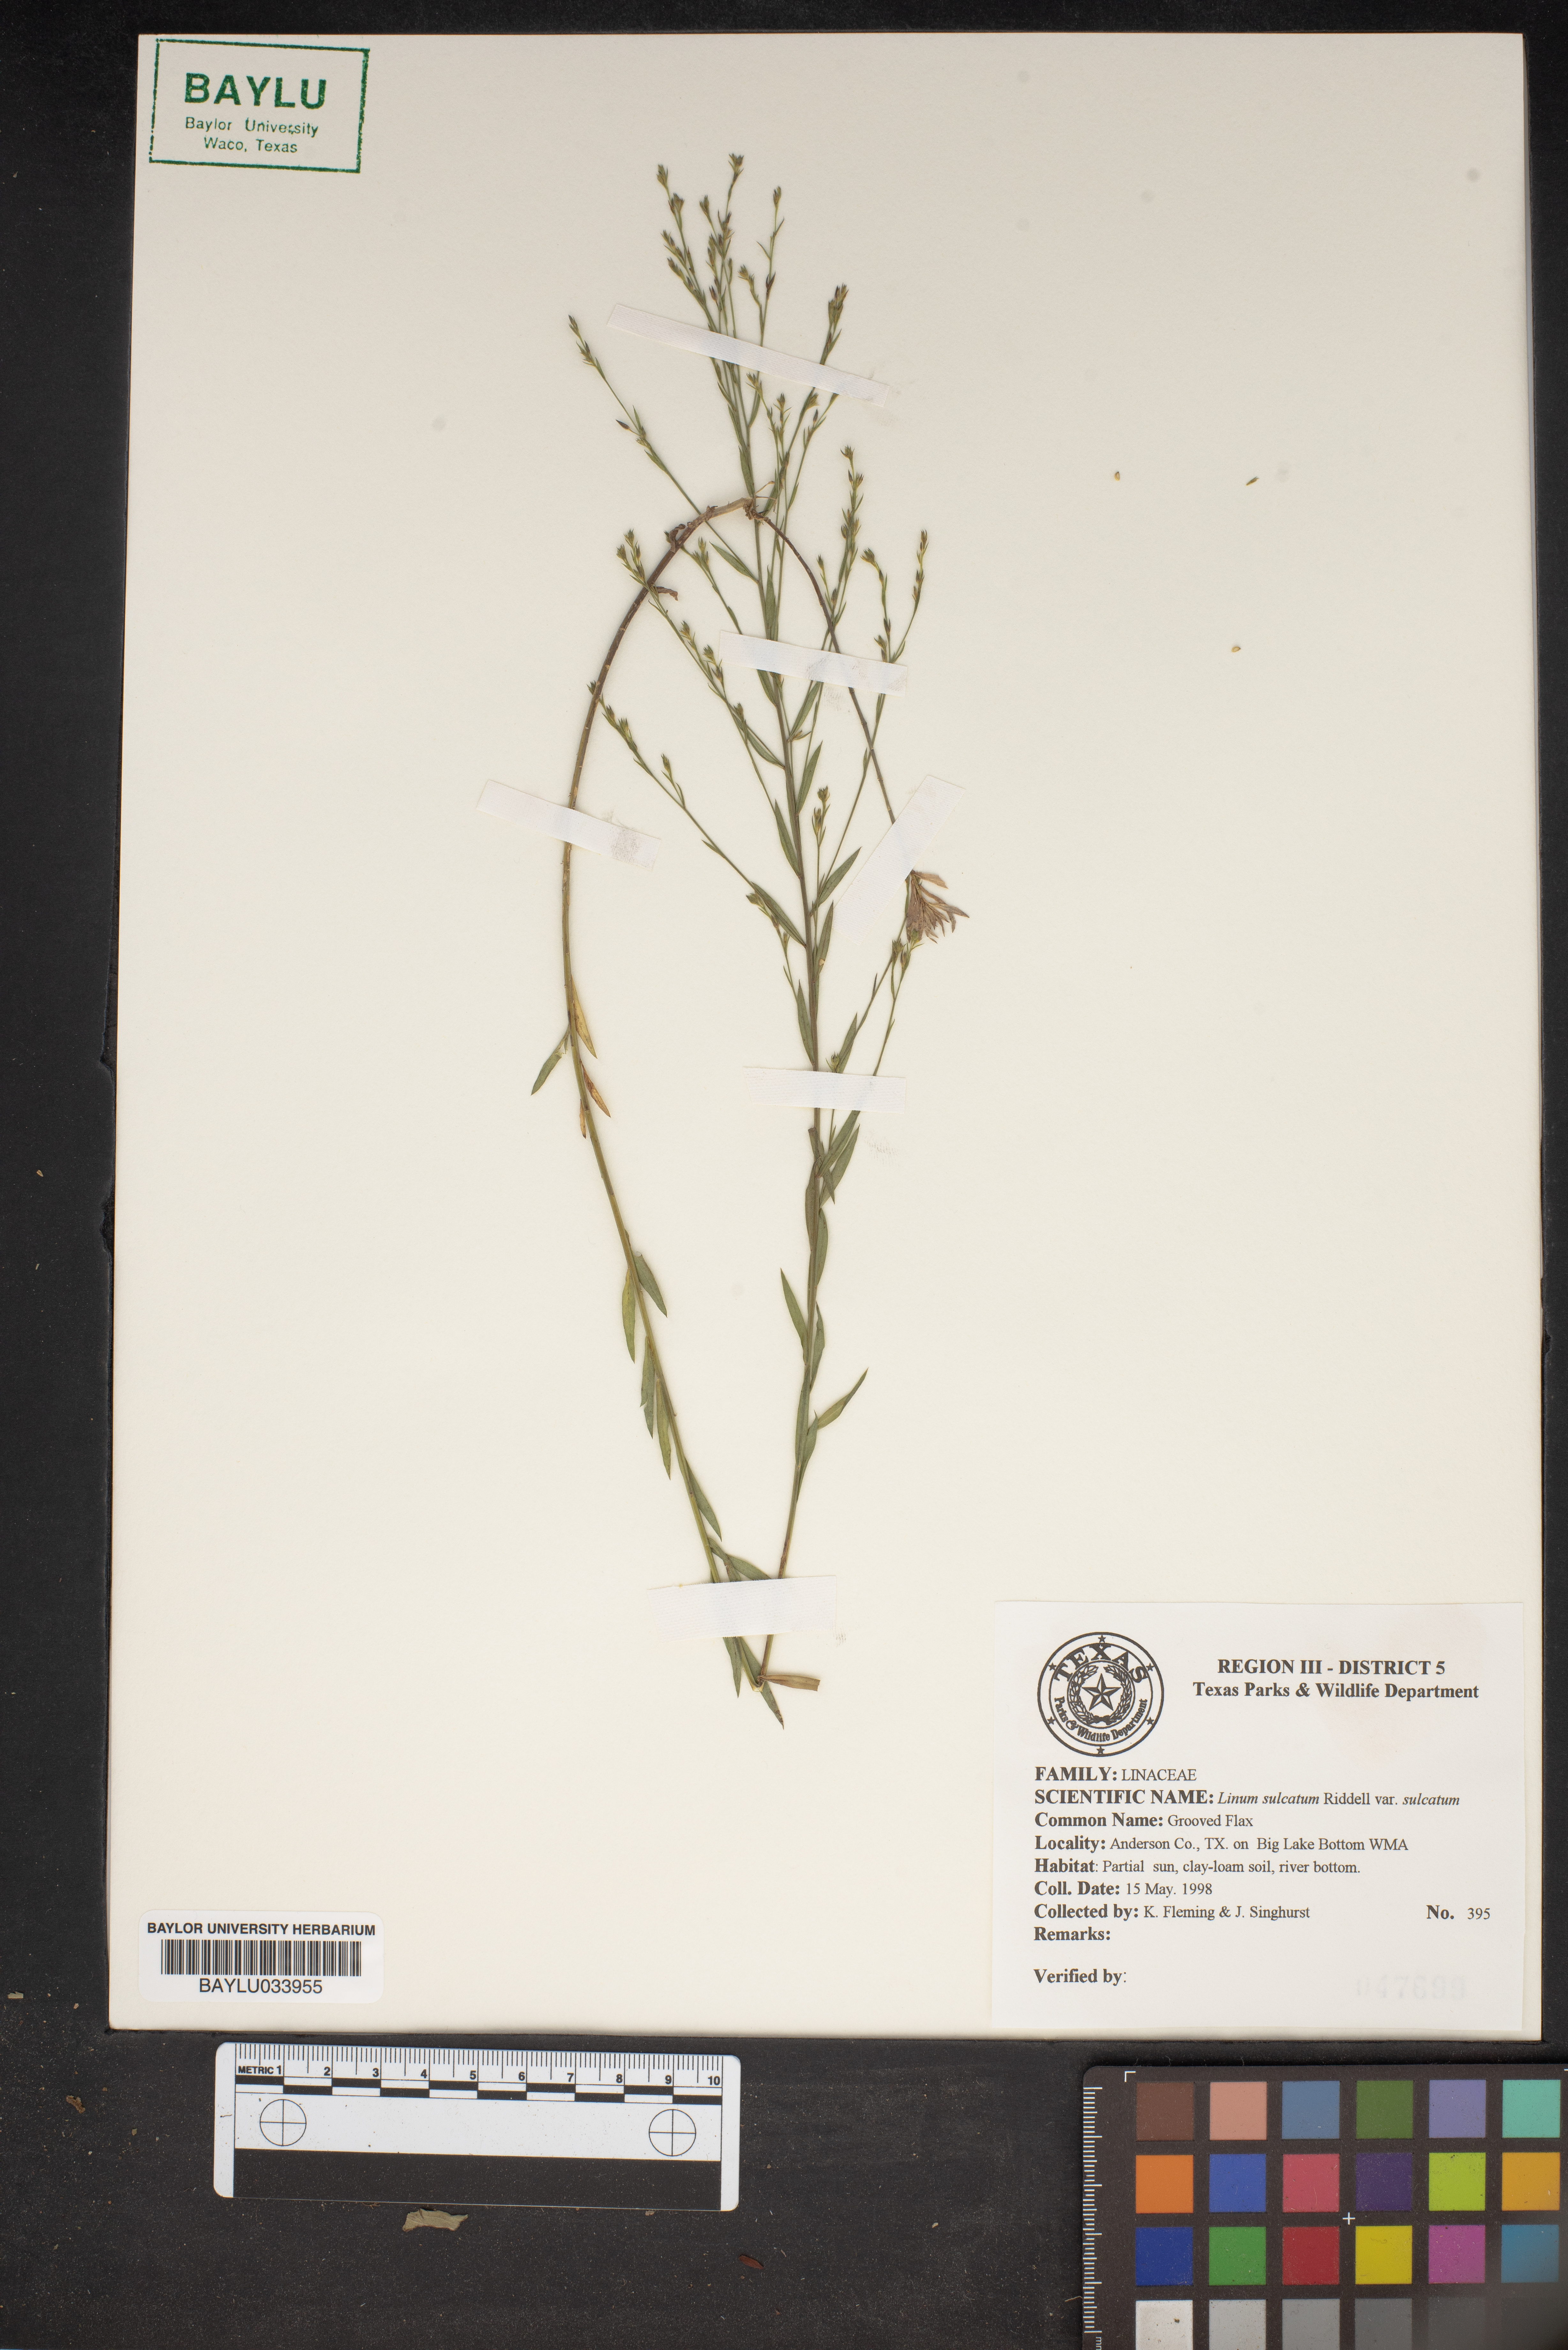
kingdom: Plantae
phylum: Tracheophyta
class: Magnoliopsida
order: Malpighiales
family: Linaceae
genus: Linum
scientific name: Linum sulcatum
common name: Grooved flax
